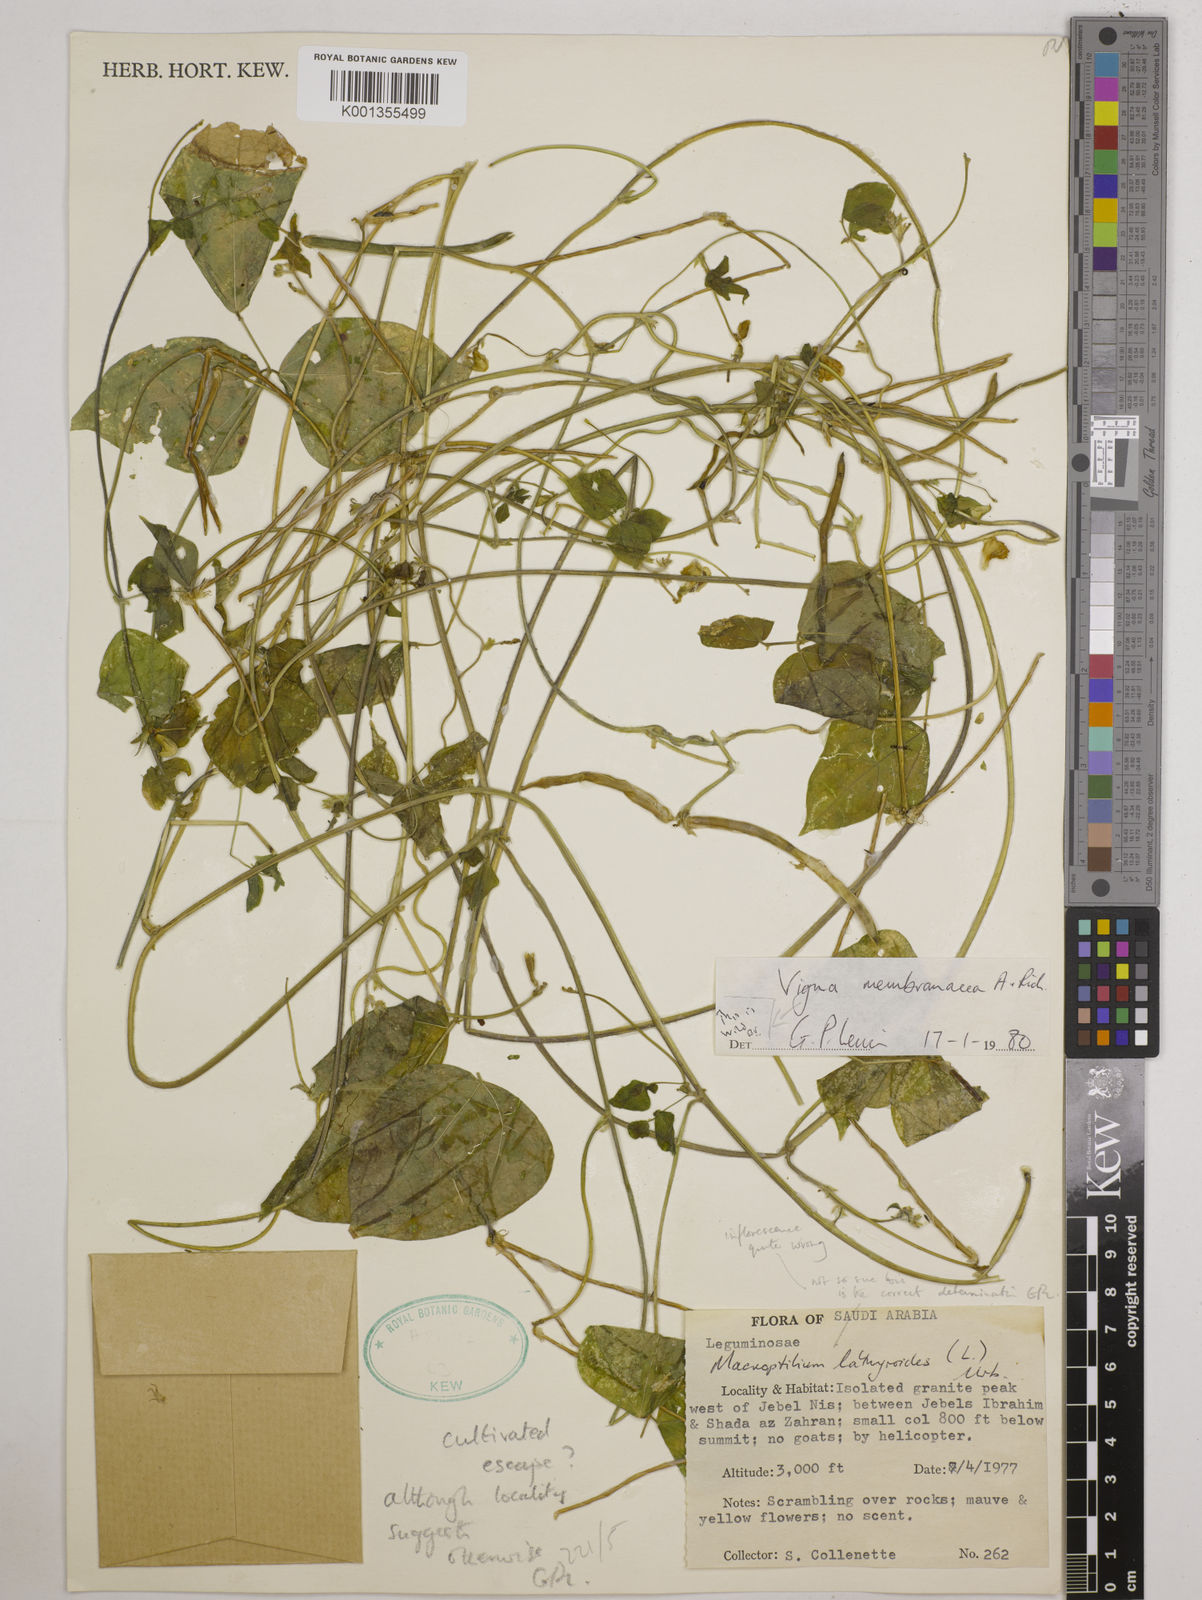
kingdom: Plantae
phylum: Tracheophyta
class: Magnoliopsida
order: Fabales
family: Fabaceae
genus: Vigna
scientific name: Vigna membranacea
